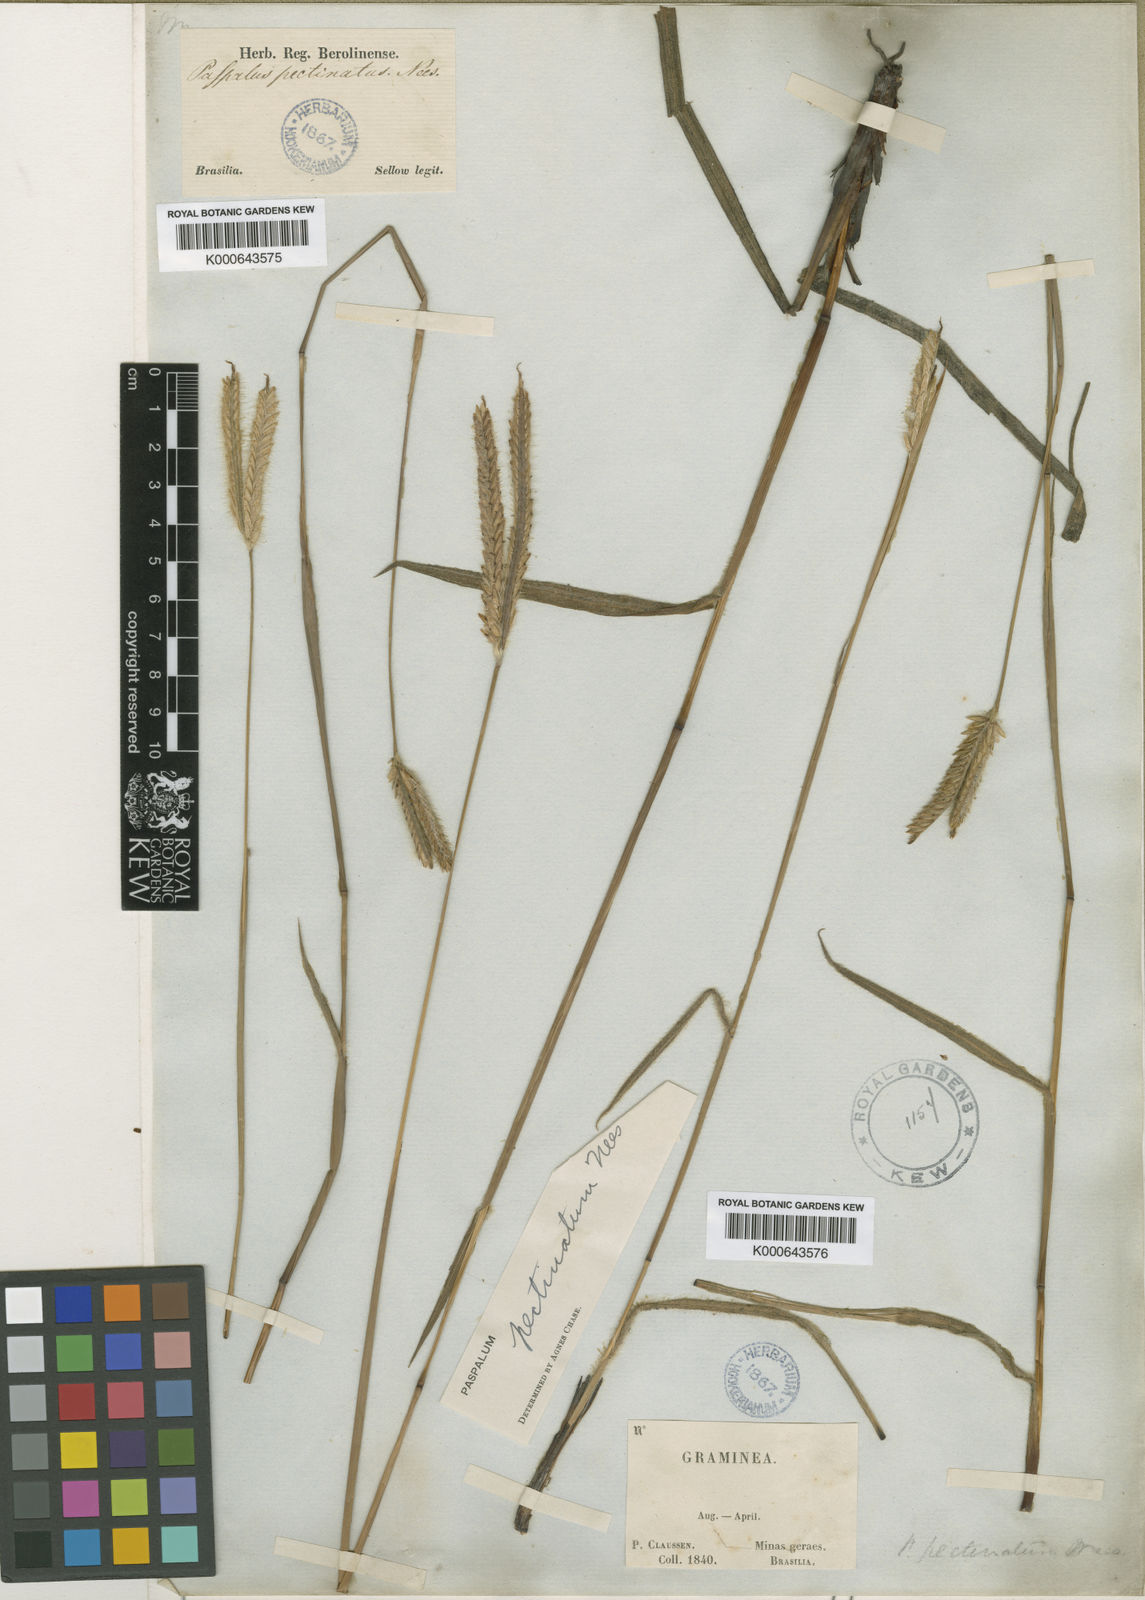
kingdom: Plantae
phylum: Tracheophyta
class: Liliopsida
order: Poales
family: Poaceae
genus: Paspalum
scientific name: Paspalum
